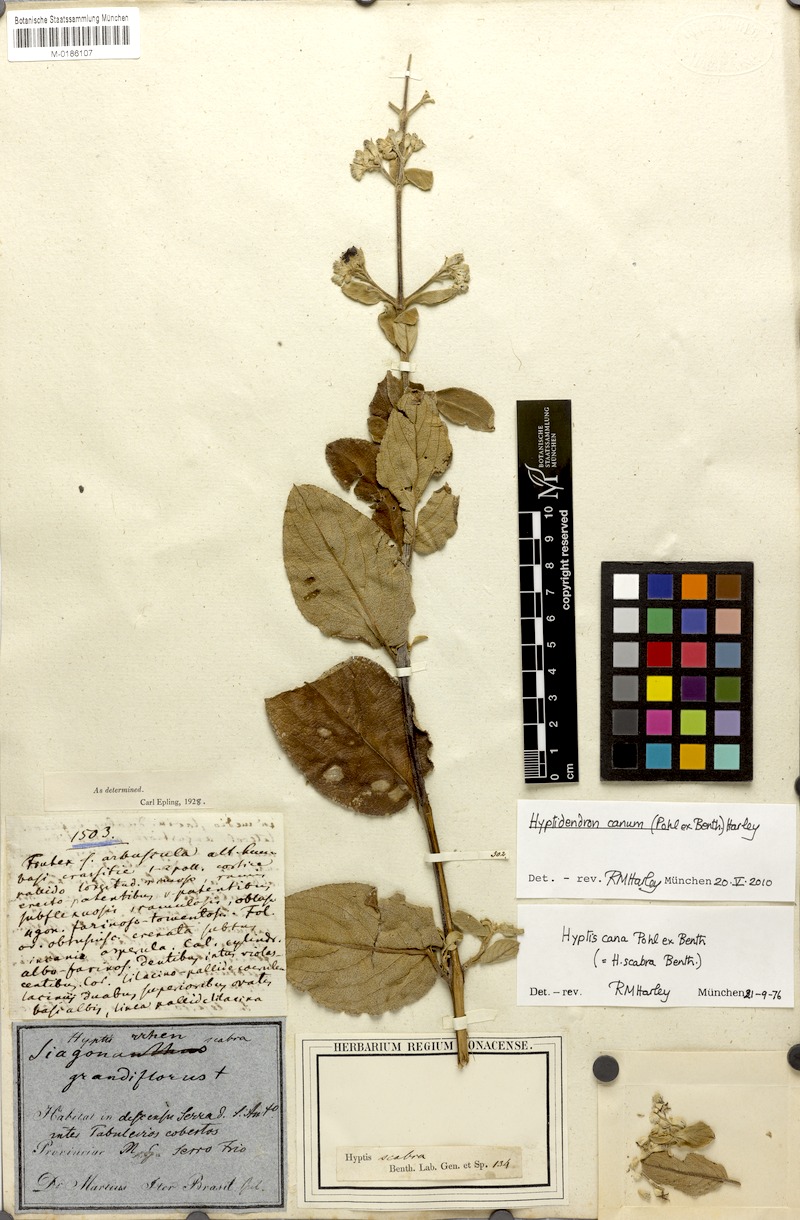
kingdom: Plantae
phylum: Tracheophyta
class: Magnoliopsida
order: Lamiales
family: Lamiaceae
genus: Hyptidendron
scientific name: Hyptidendron canum
